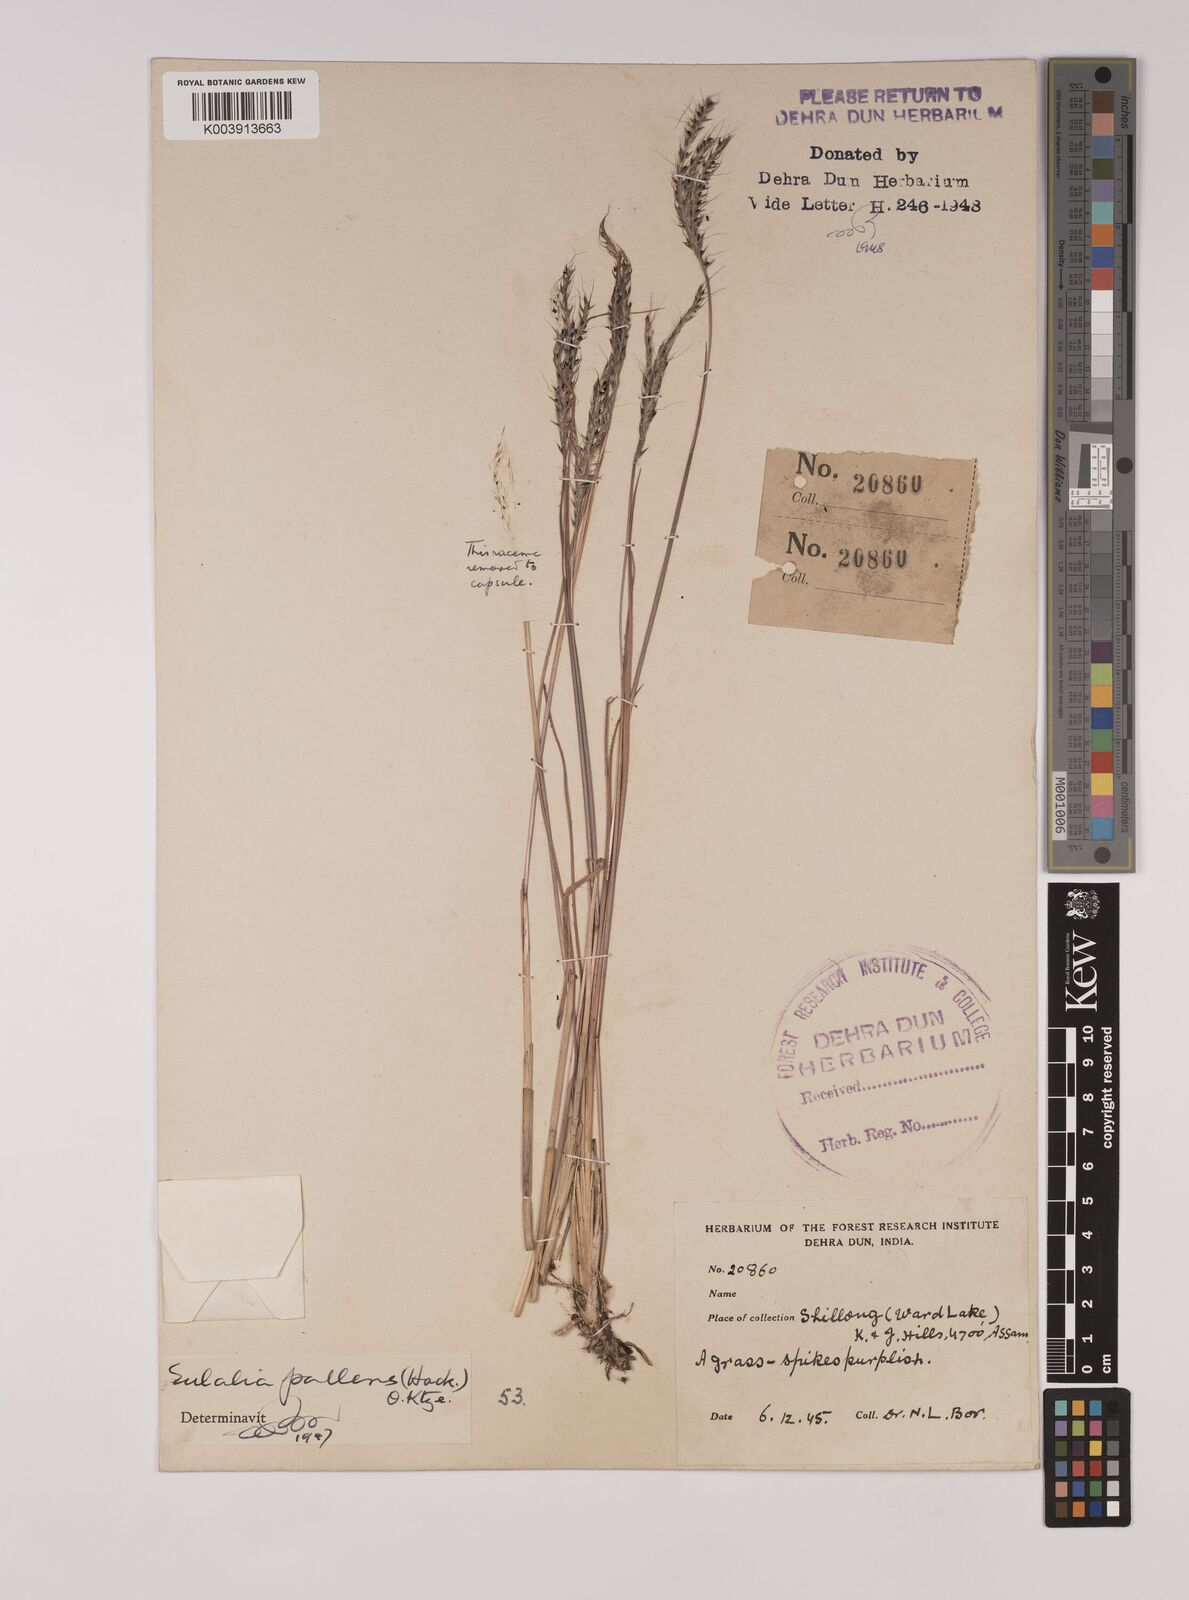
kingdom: Plantae
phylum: Tracheophyta
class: Liliopsida
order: Poales
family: Poaceae
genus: Eulalia
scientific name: Eulalia pallens
